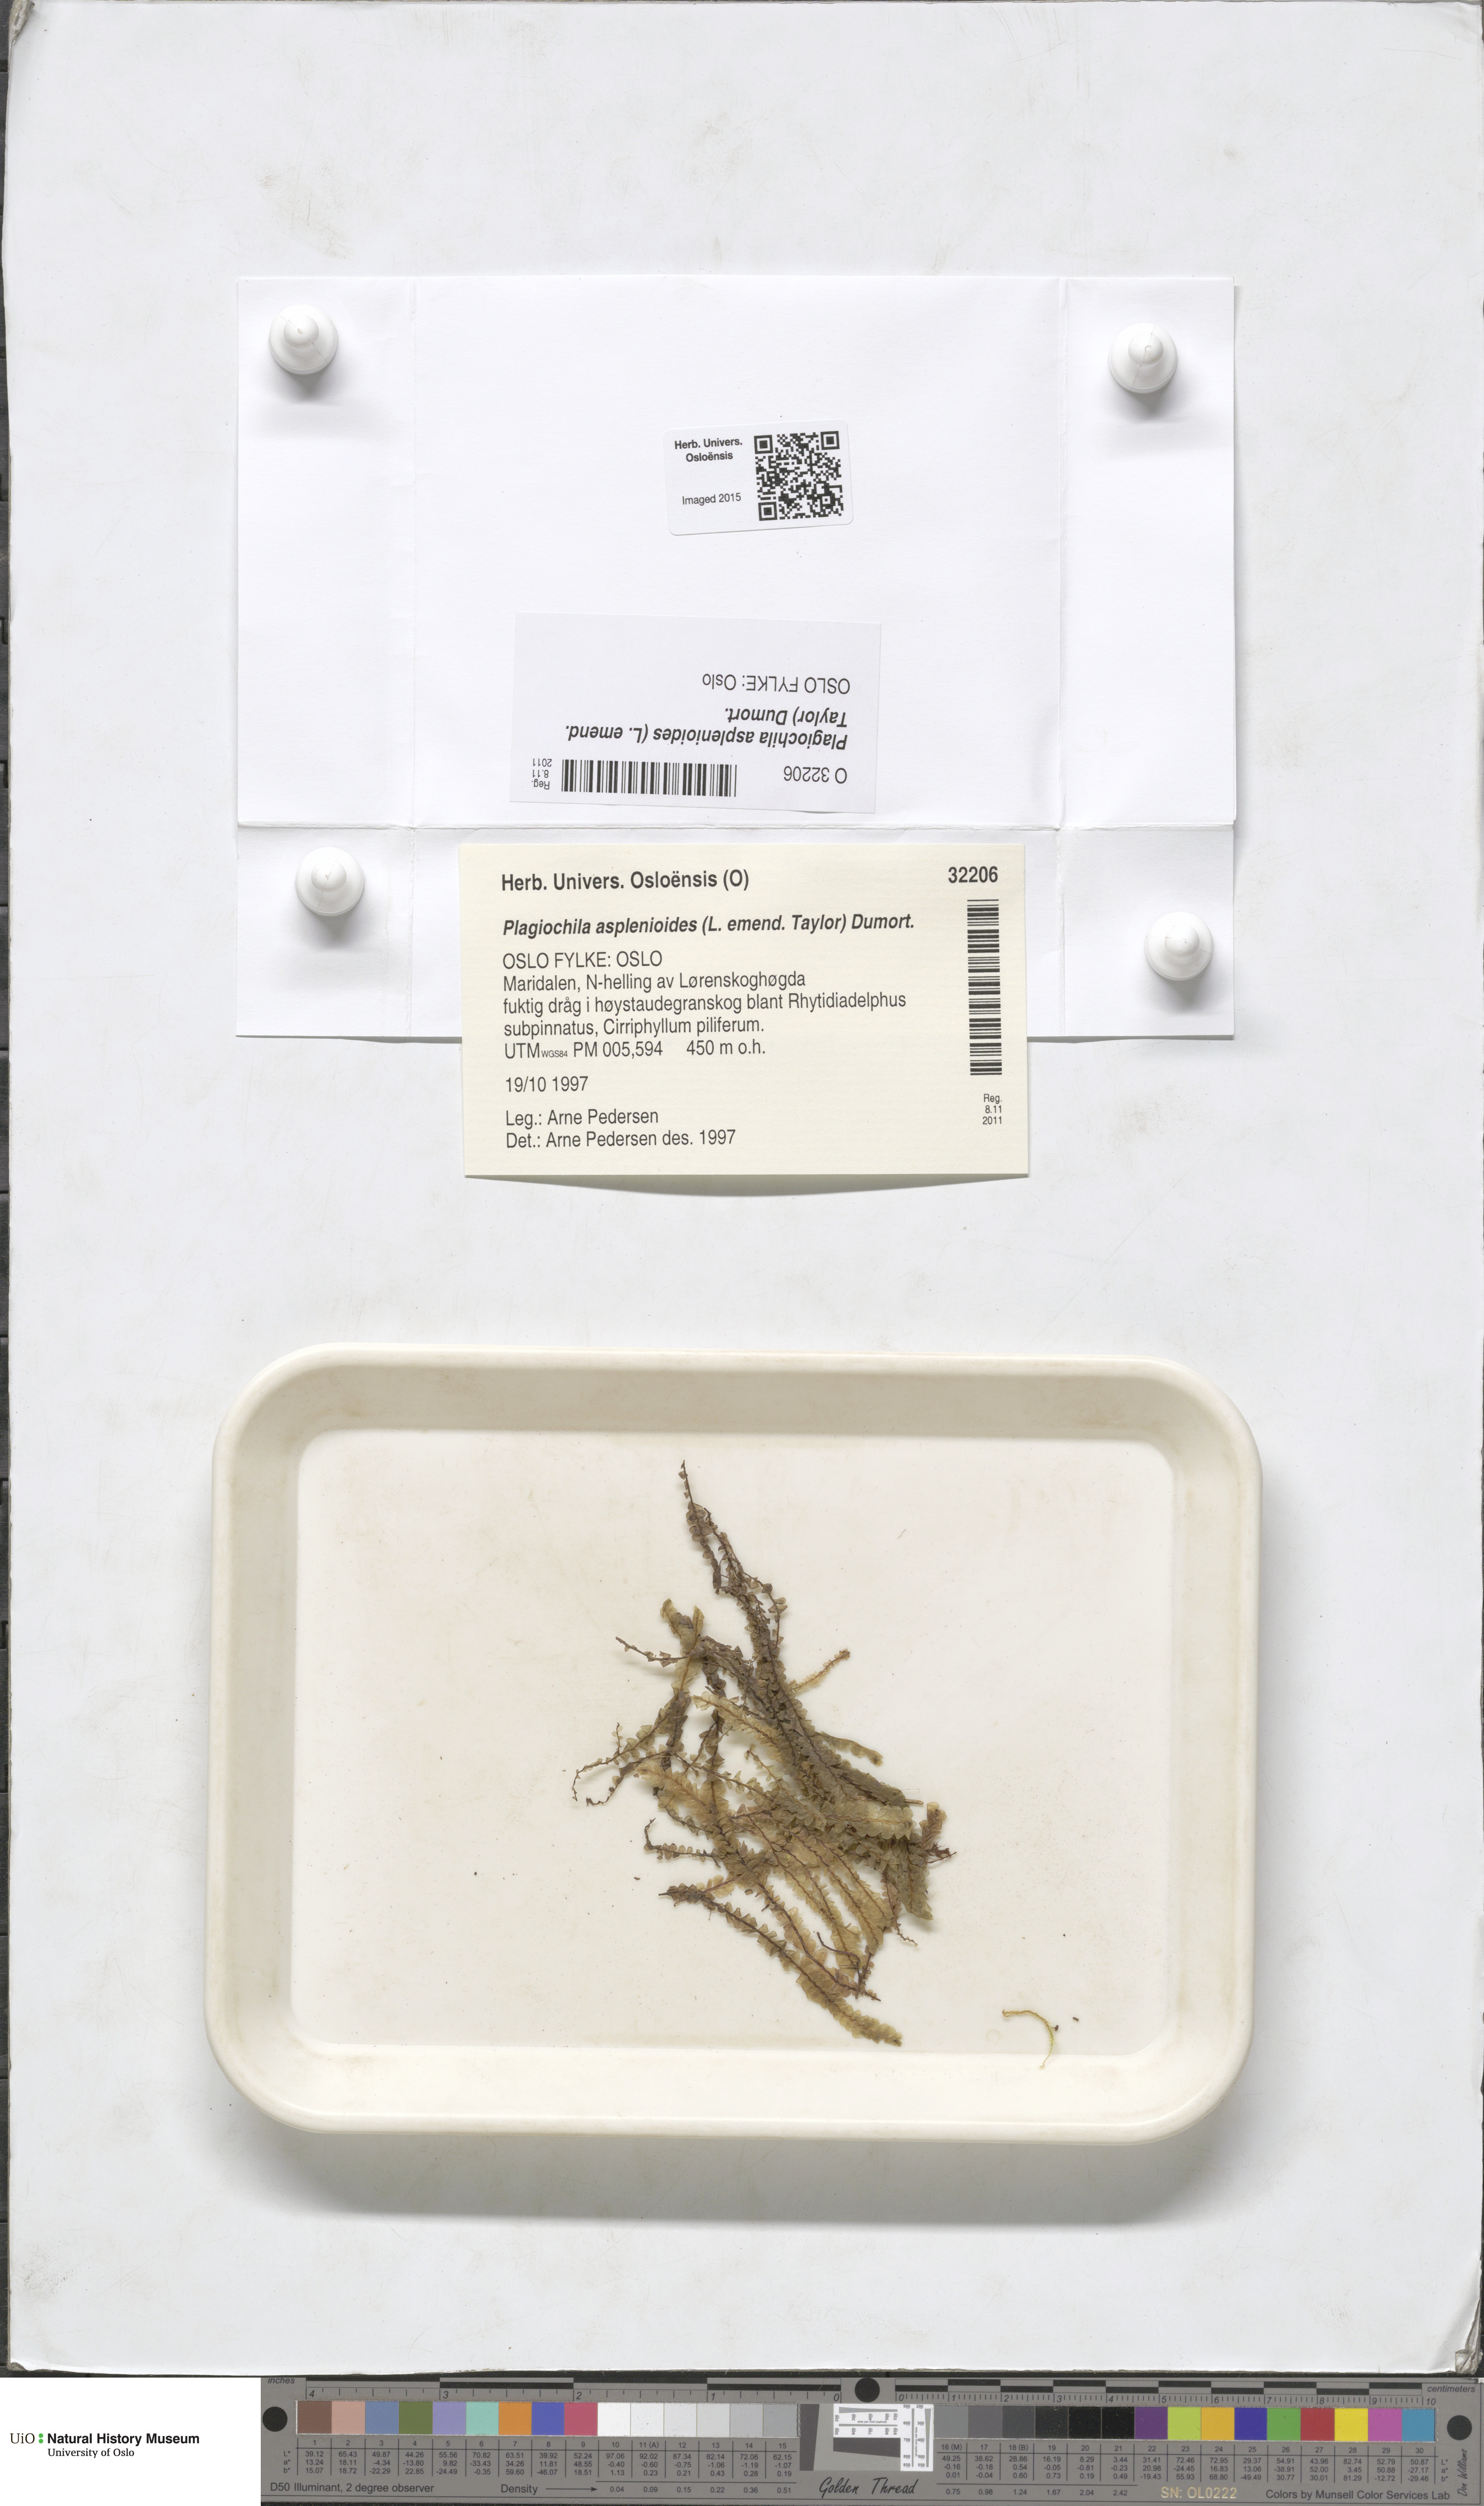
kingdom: Plantae
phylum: Marchantiophyta
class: Jungermanniopsida
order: Jungermanniales
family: Plagiochilaceae
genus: Plagiochila
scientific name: Plagiochila asplenioides
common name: Greater featherwort
